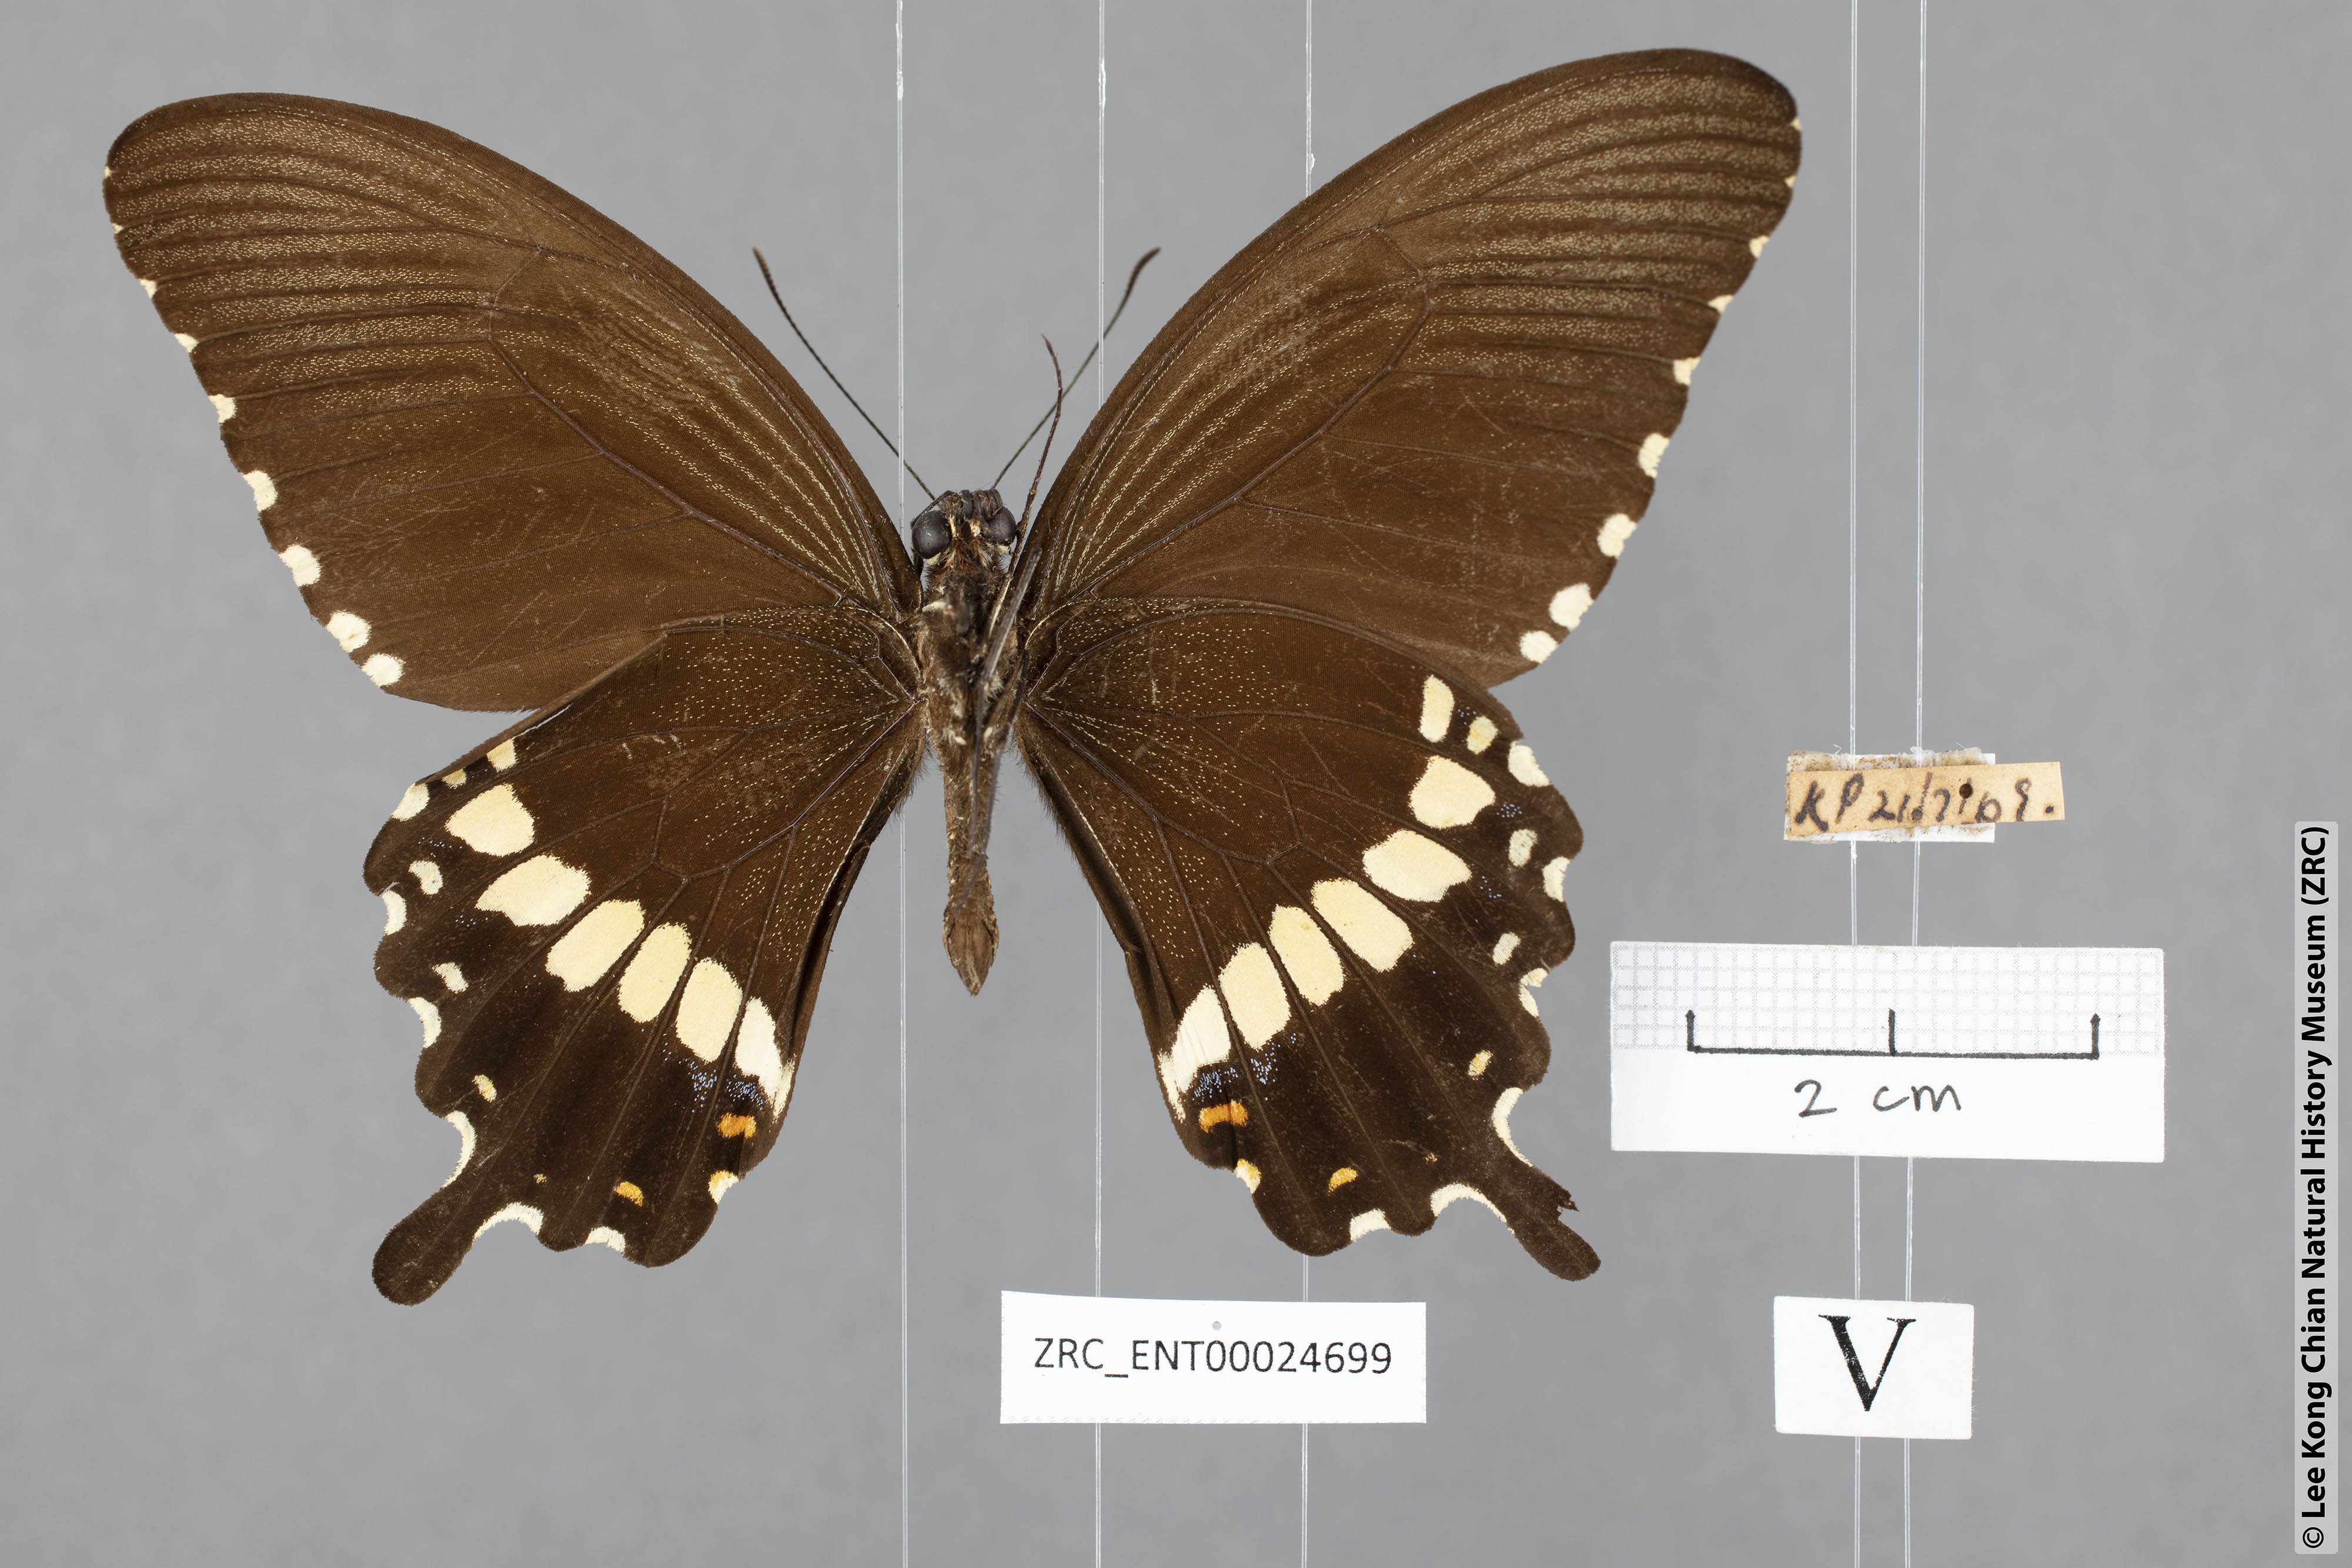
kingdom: Animalia
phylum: Arthropoda
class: Insecta
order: Lepidoptera
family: Papilionidae
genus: Papilio
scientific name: Papilio polytes
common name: Common mormon
